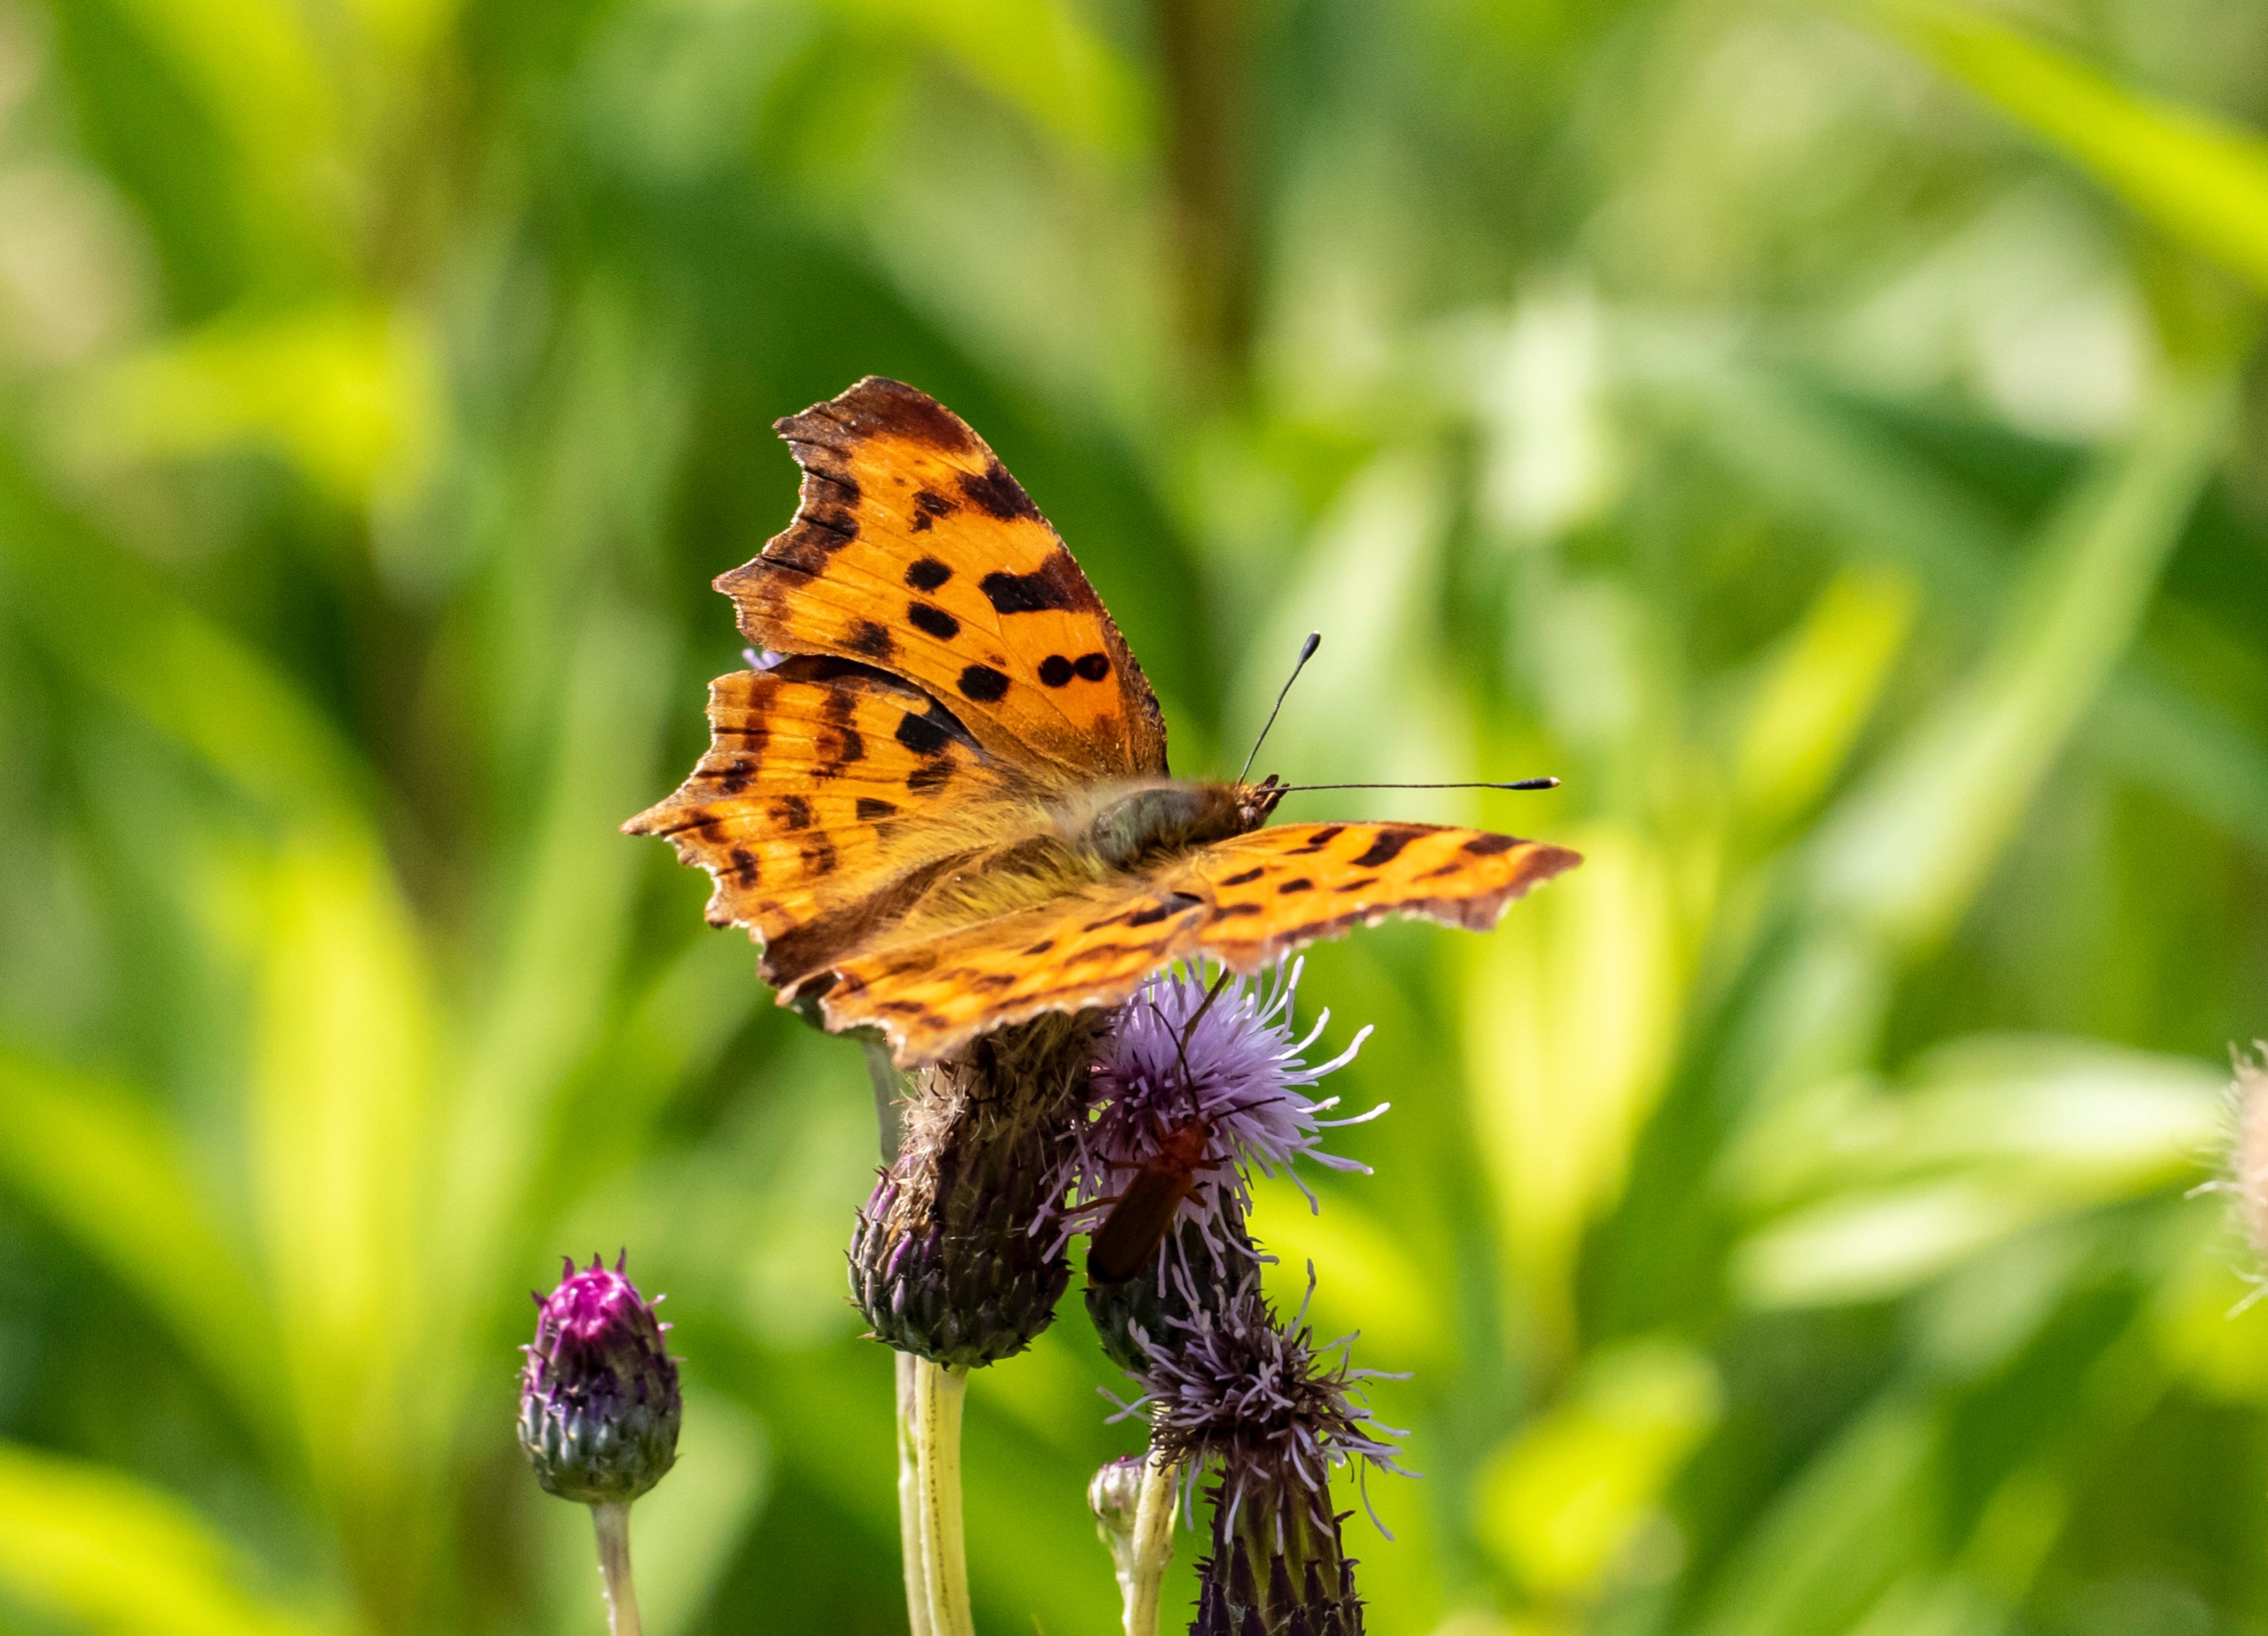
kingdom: Animalia
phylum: Arthropoda
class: Insecta
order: Lepidoptera
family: Nymphalidae
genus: Polygonia
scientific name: Polygonia c-album
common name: Det hvide C
